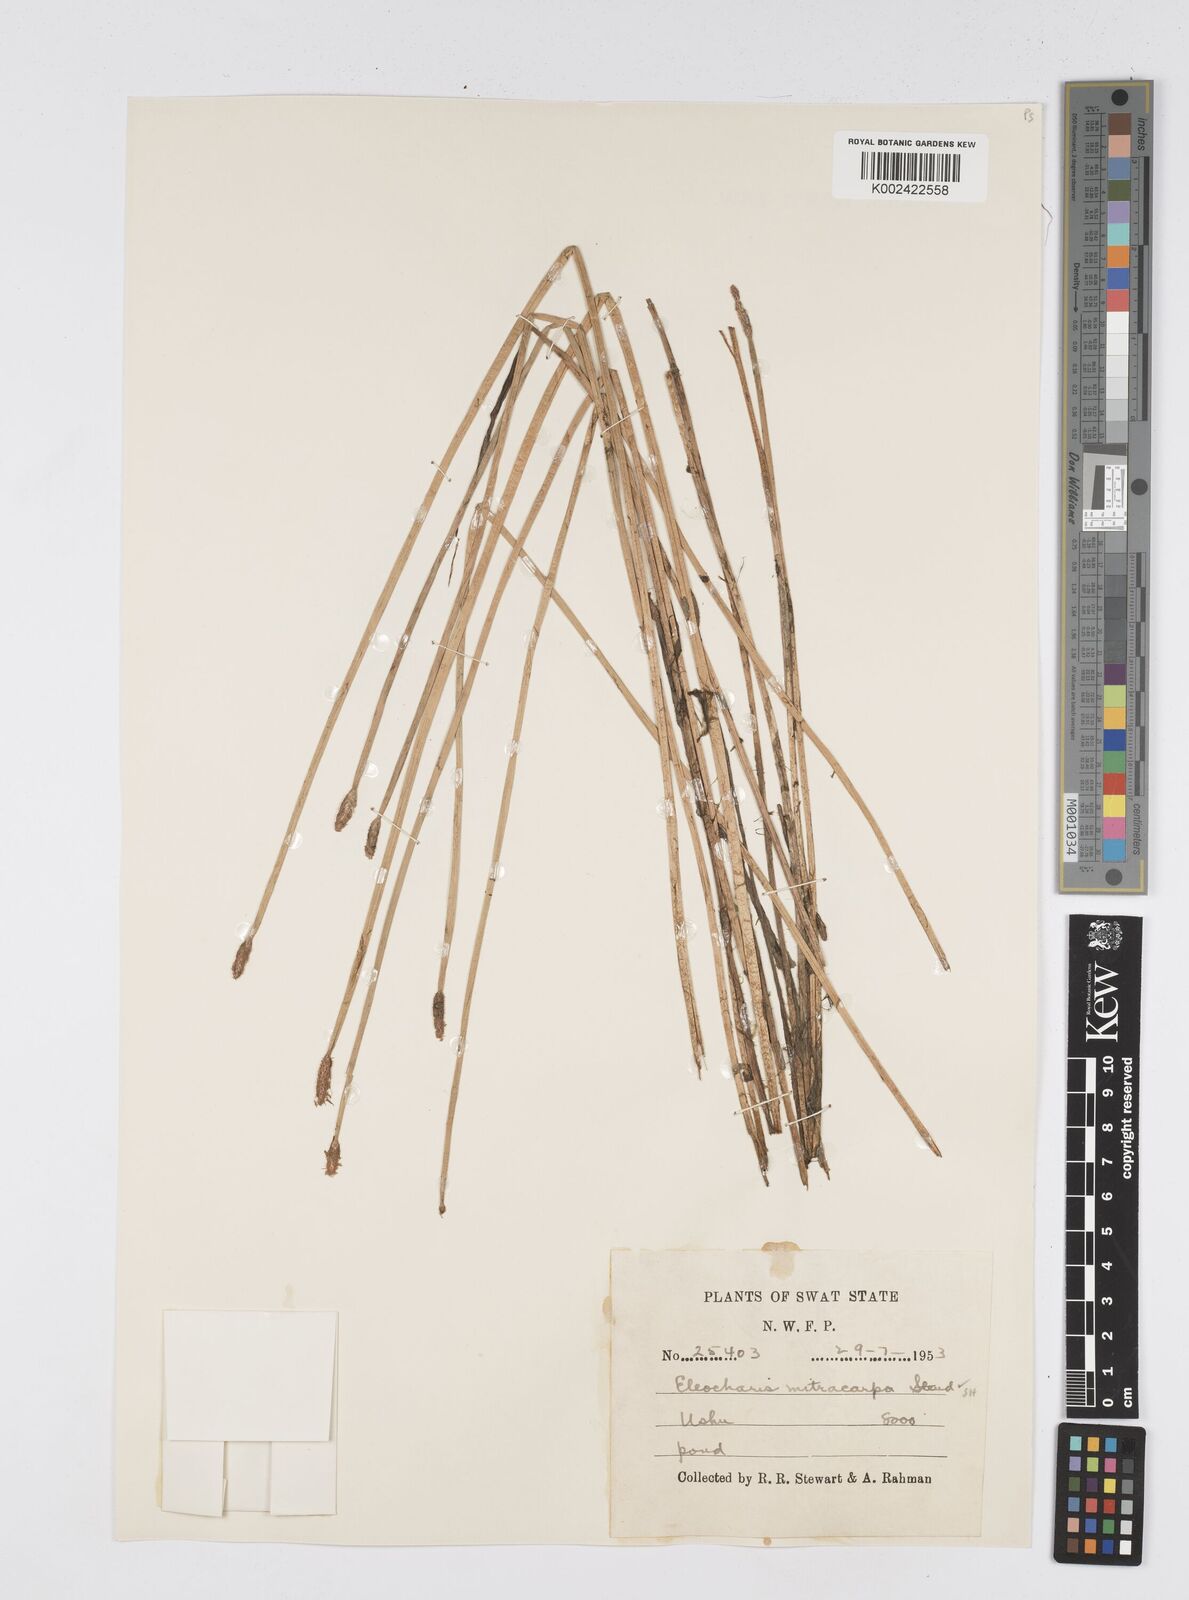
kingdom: Plantae
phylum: Tracheophyta
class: Liliopsida
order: Poales
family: Cyperaceae
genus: Eleocharis
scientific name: Eleocharis mitracarpa
